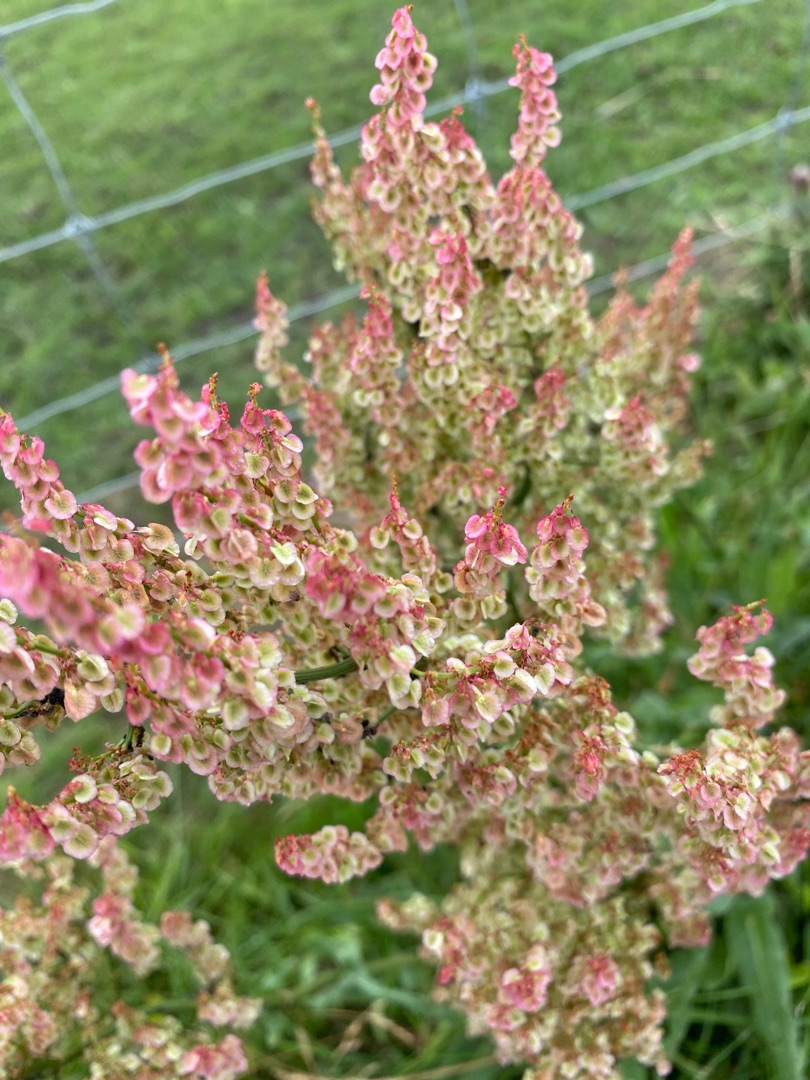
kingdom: Plantae
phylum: Tracheophyta
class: Magnoliopsida
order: Caryophyllales
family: Polygonaceae
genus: Rumex
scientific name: Rumex thyrsiflorus
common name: Dusk-syre
